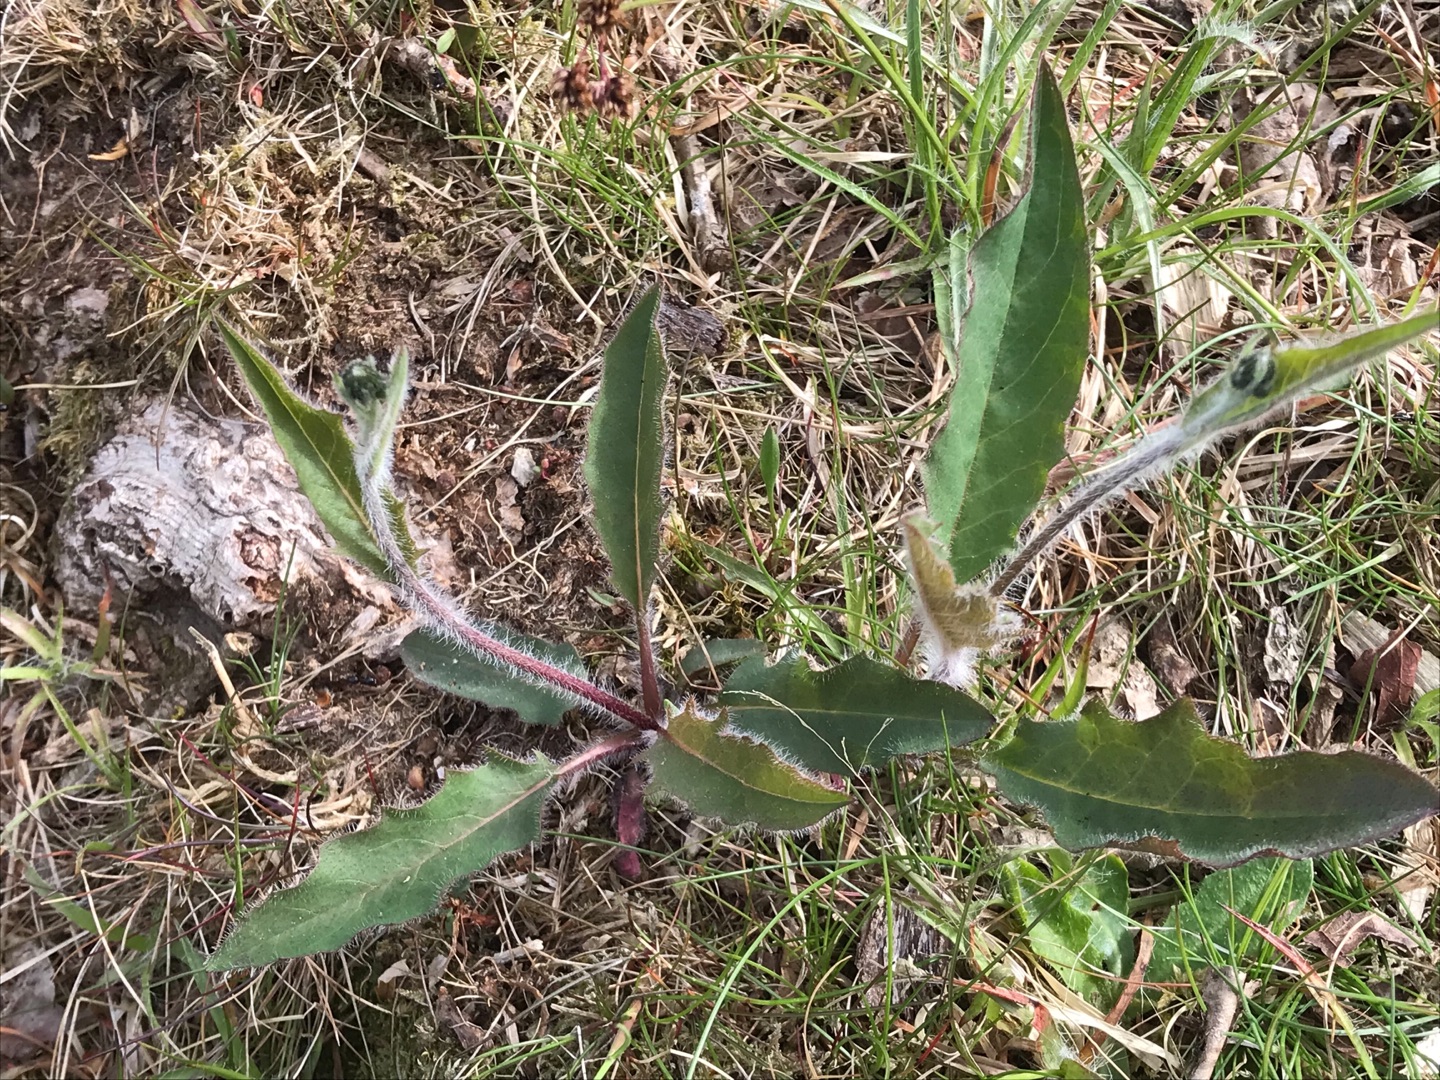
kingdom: Plantae
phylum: Tracheophyta
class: Magnoliopsida
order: Asterales
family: Asteraceae
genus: Hieracium
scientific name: Hieracium vulgatum
